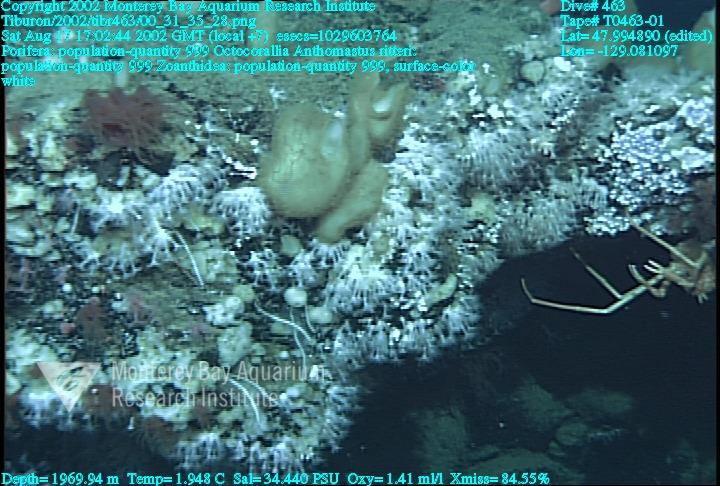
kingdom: Animalia
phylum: Porifera
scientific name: Porifera
